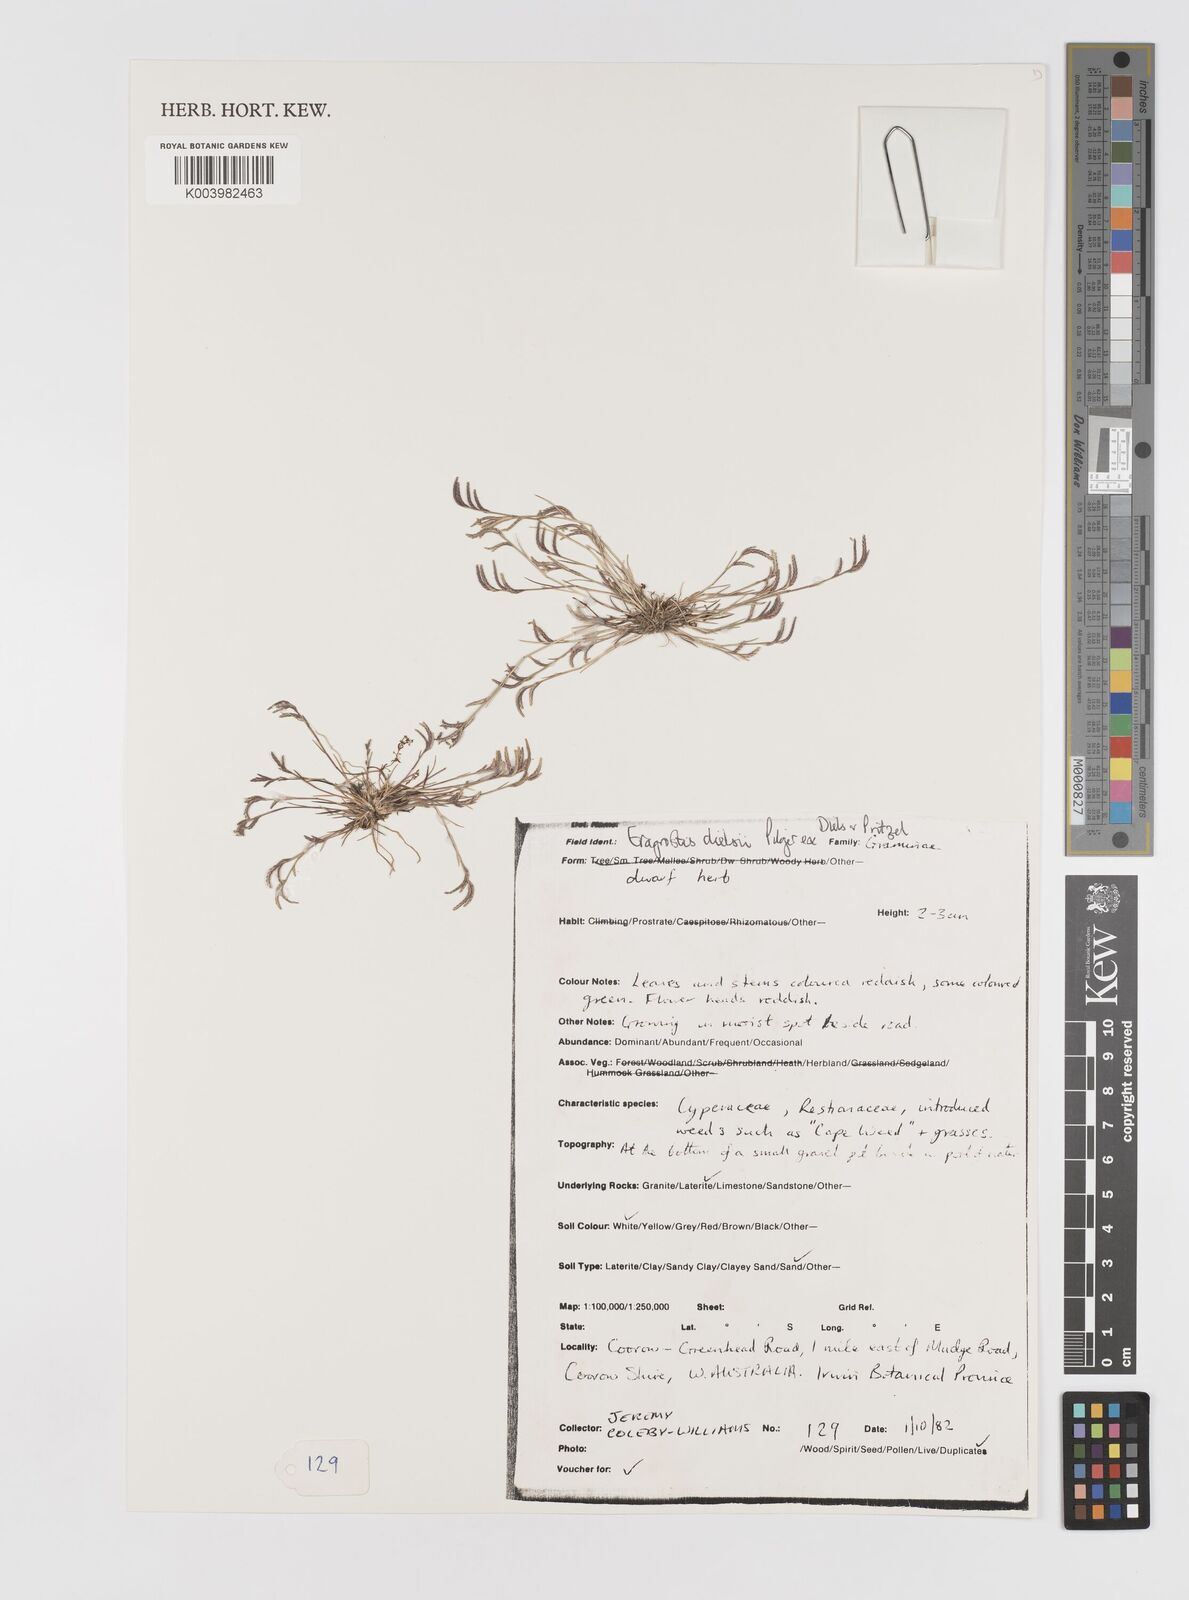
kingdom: Plantae
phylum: Tracheophyta
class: Liliopsida
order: Poales
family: Poaceae
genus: Eragrostis
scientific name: Eragrostis dielsii
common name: Lovegrass
